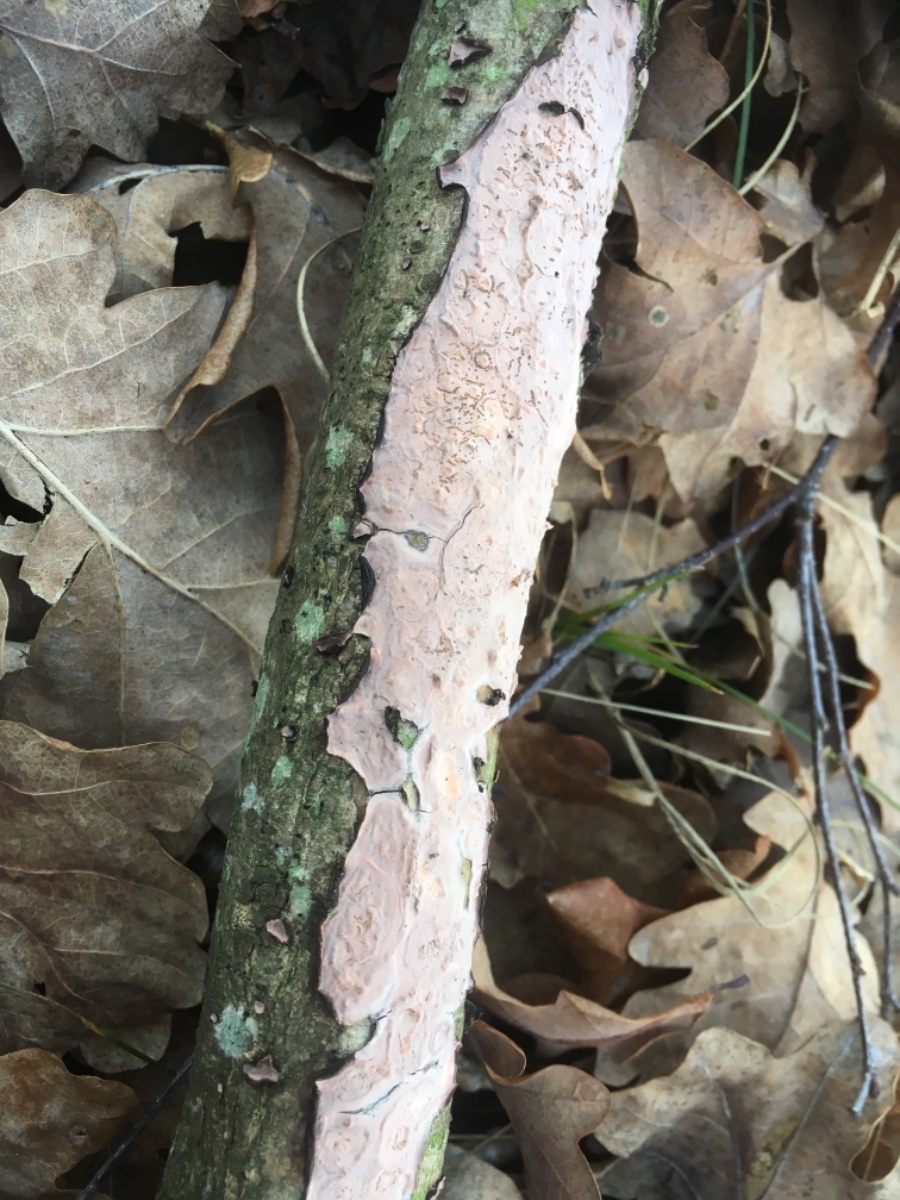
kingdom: Fungi
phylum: Basidiomycota
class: Agaricomycetes
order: Russulales
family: Peniophoraceae
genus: Peniophora
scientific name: Peniophora quercina
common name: ege-voksskind
